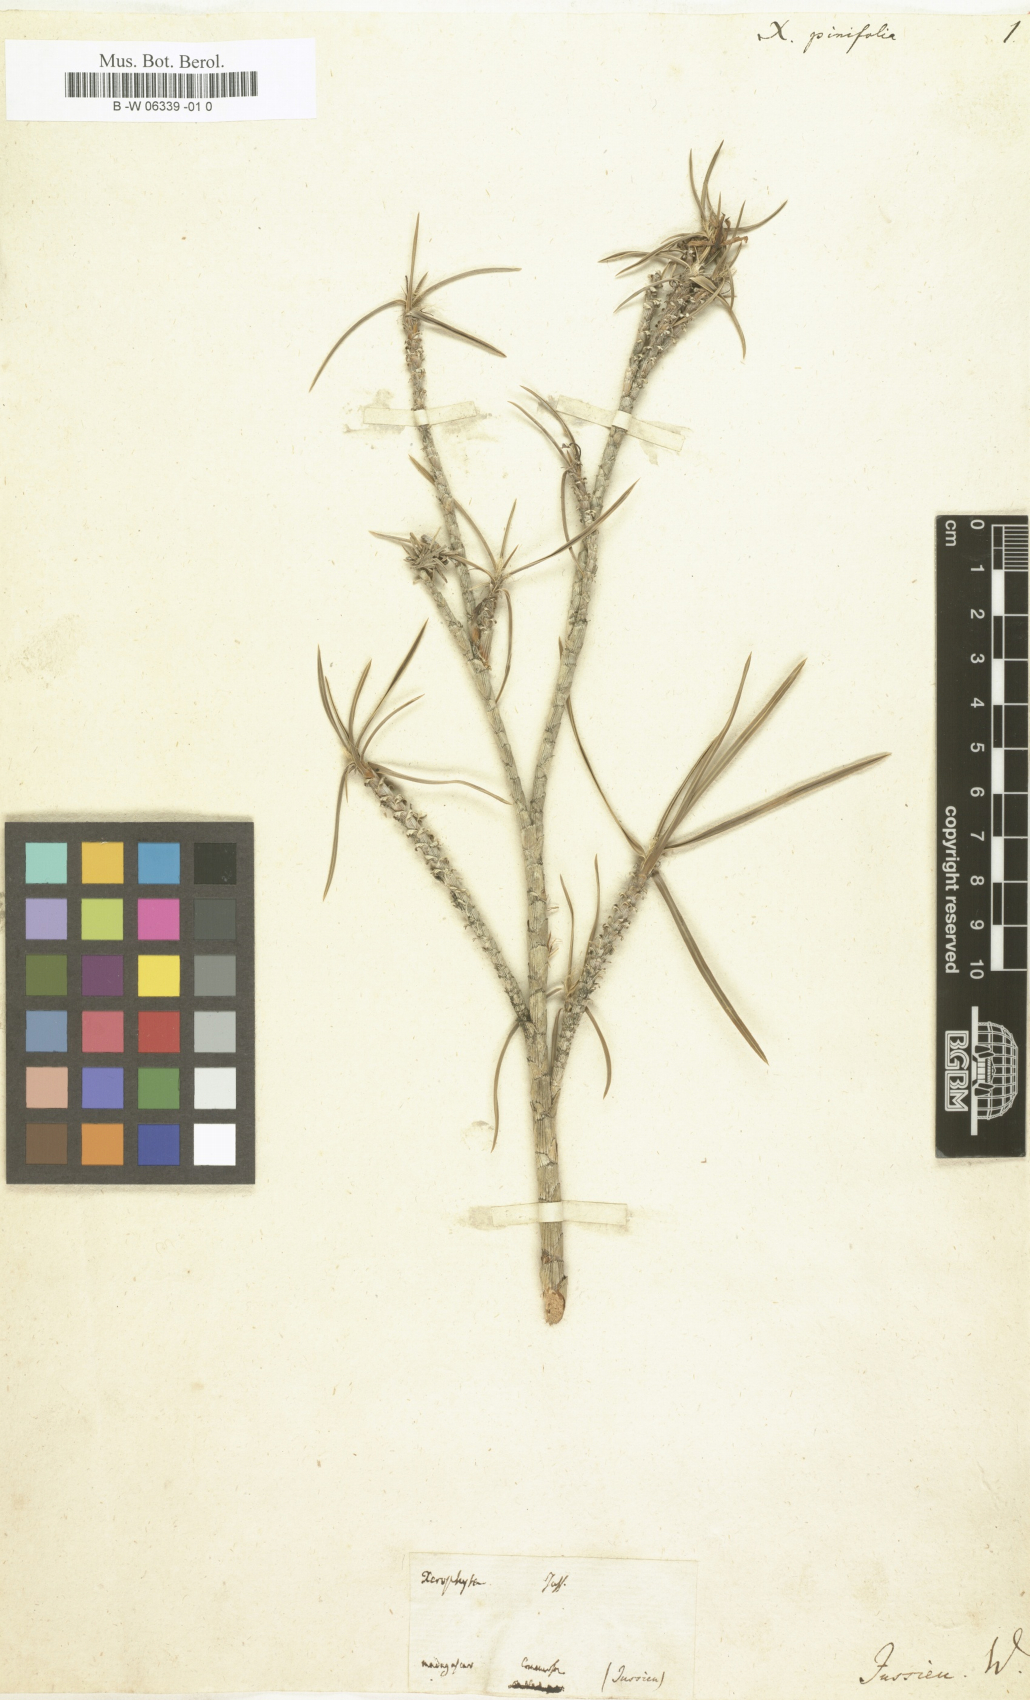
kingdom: Plantae
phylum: Tracheophyta
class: Liliopsida
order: Pandanales
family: Velloziaceae
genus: Xerophyta
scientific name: Xerophyta pinifolia
